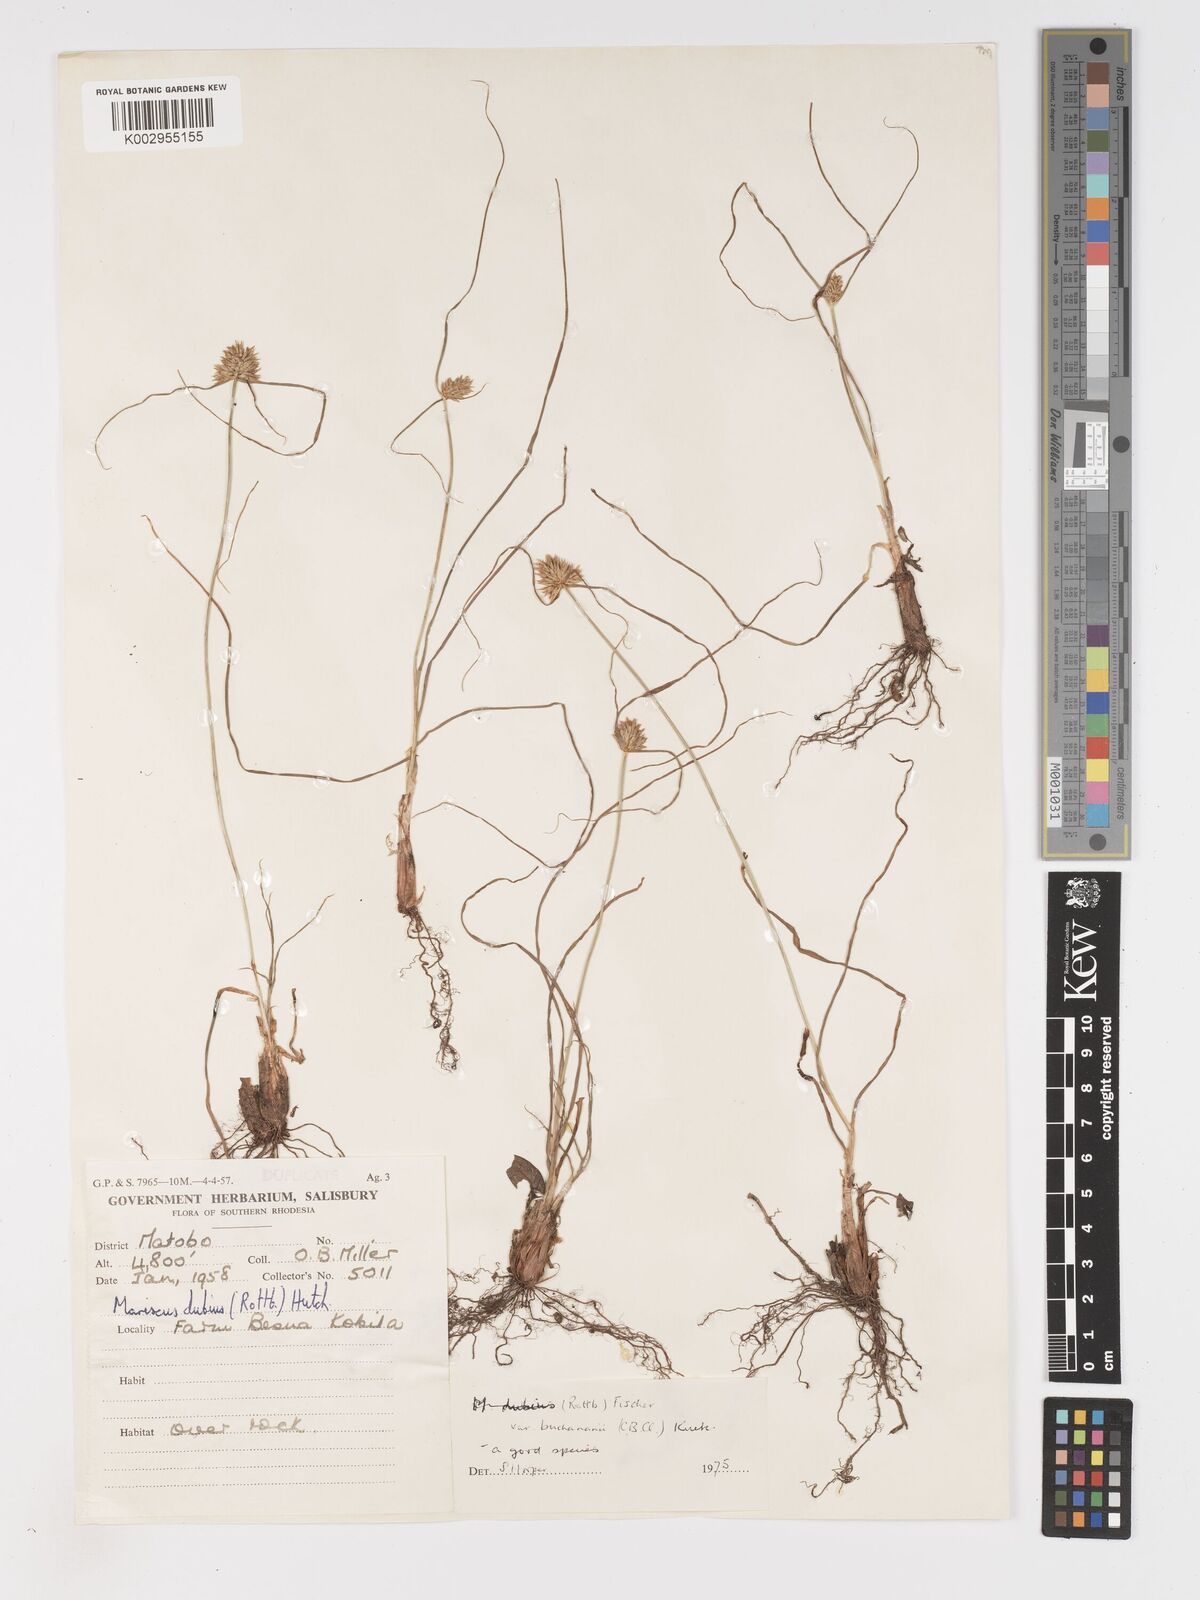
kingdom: Plantae
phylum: Tracheophyta
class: Liliopsida
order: Poales
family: Cyperaceae
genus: Cyperus
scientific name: Cyperus dubius
